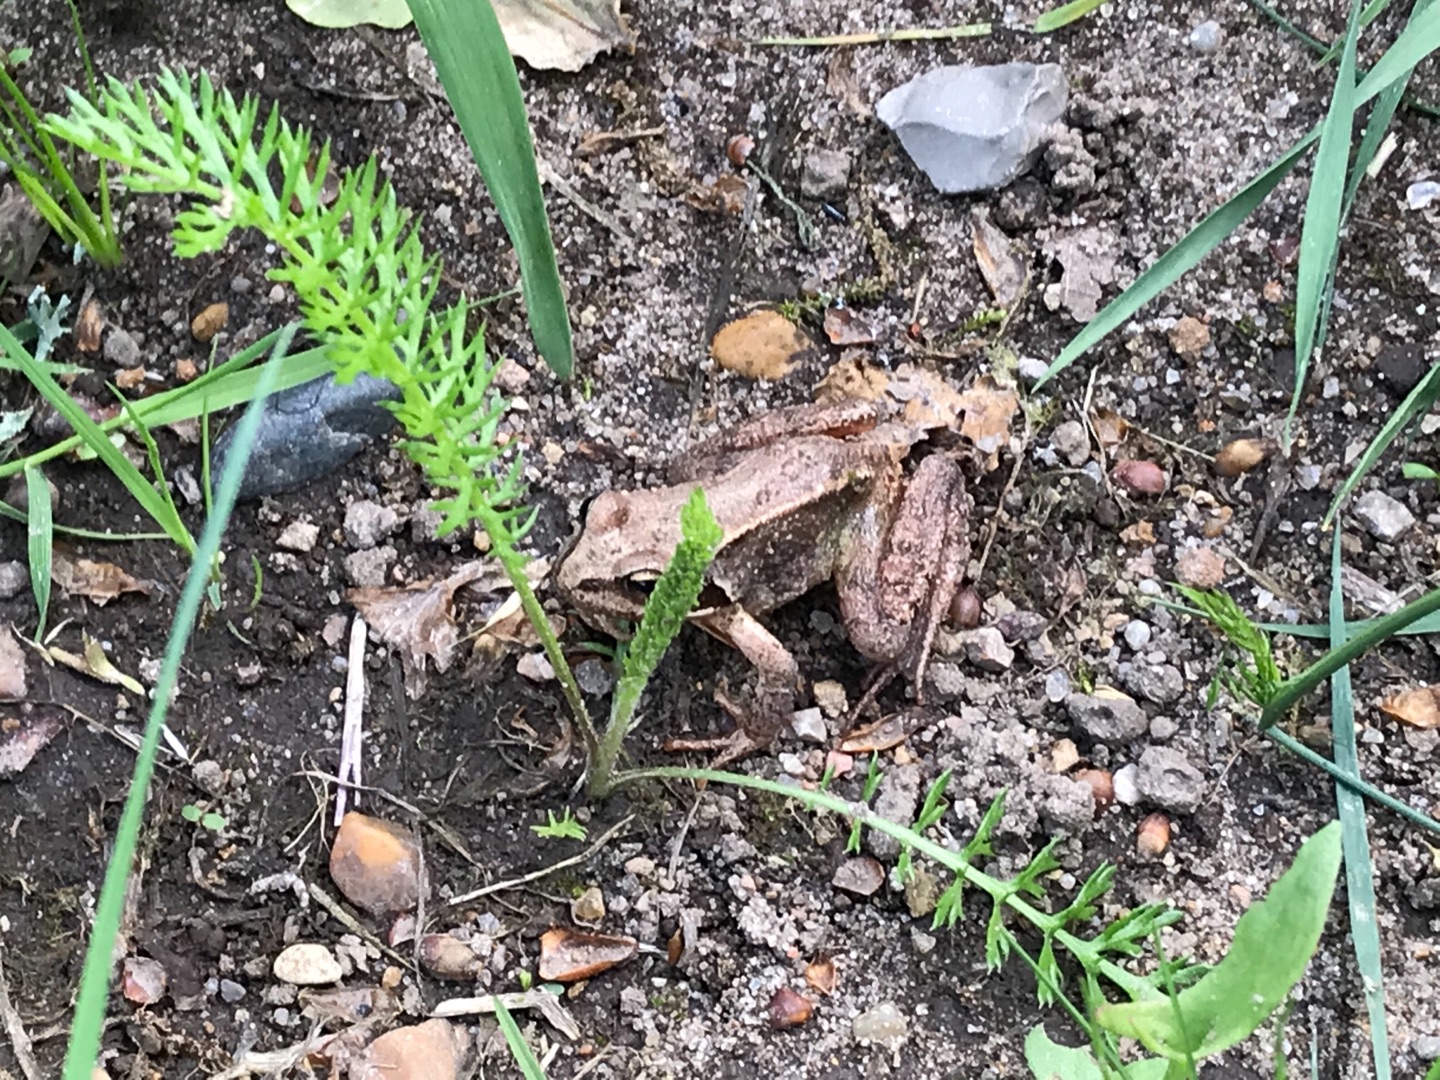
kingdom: Animalia
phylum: Chordata
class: Amphibia
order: Anura
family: Ranidae
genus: Rana
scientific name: Rana temporaria
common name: Butsnudet frø
